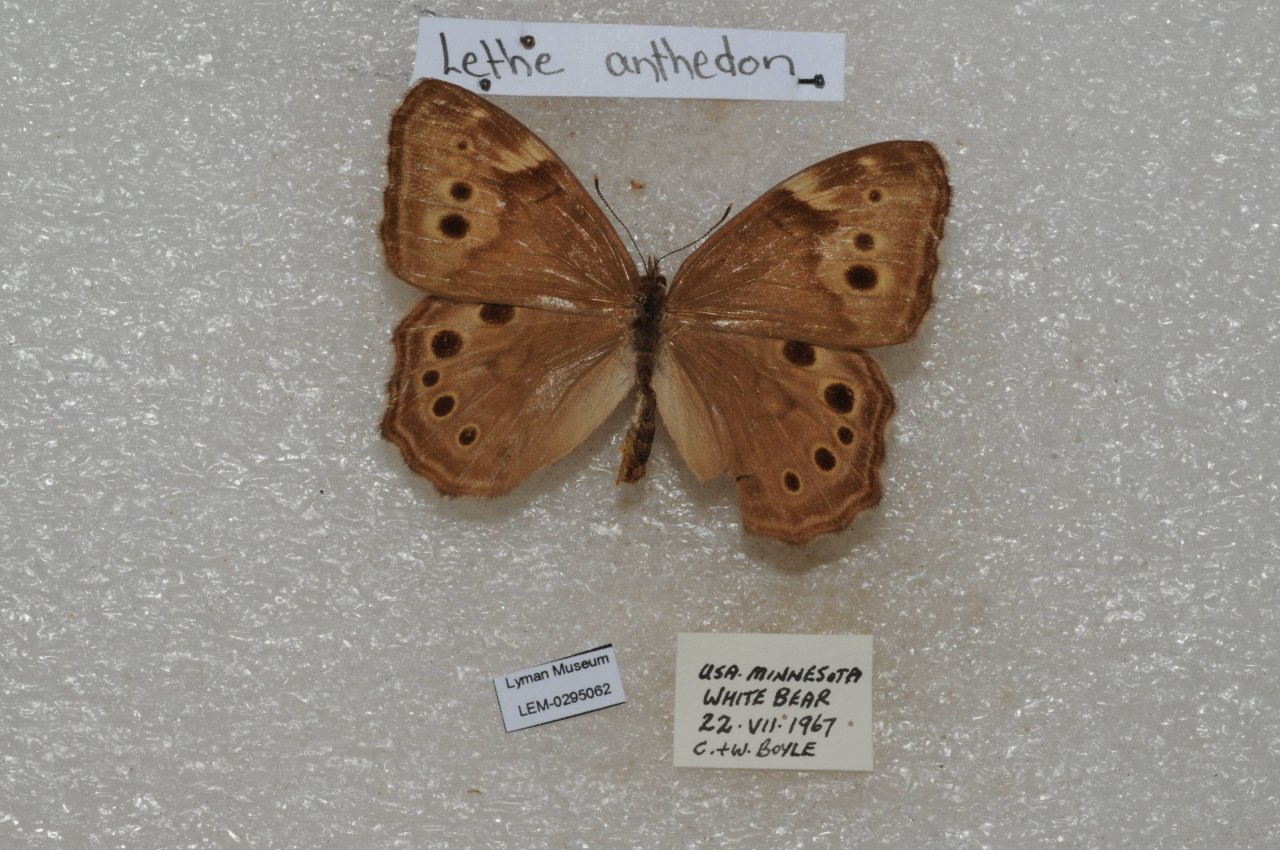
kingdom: Animalia
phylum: Arthropoda
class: Insecta
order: Lepidoptera
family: Nymphalidae
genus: Lethe
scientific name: Lethe anthedon
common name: Northern Pearly-Eye
